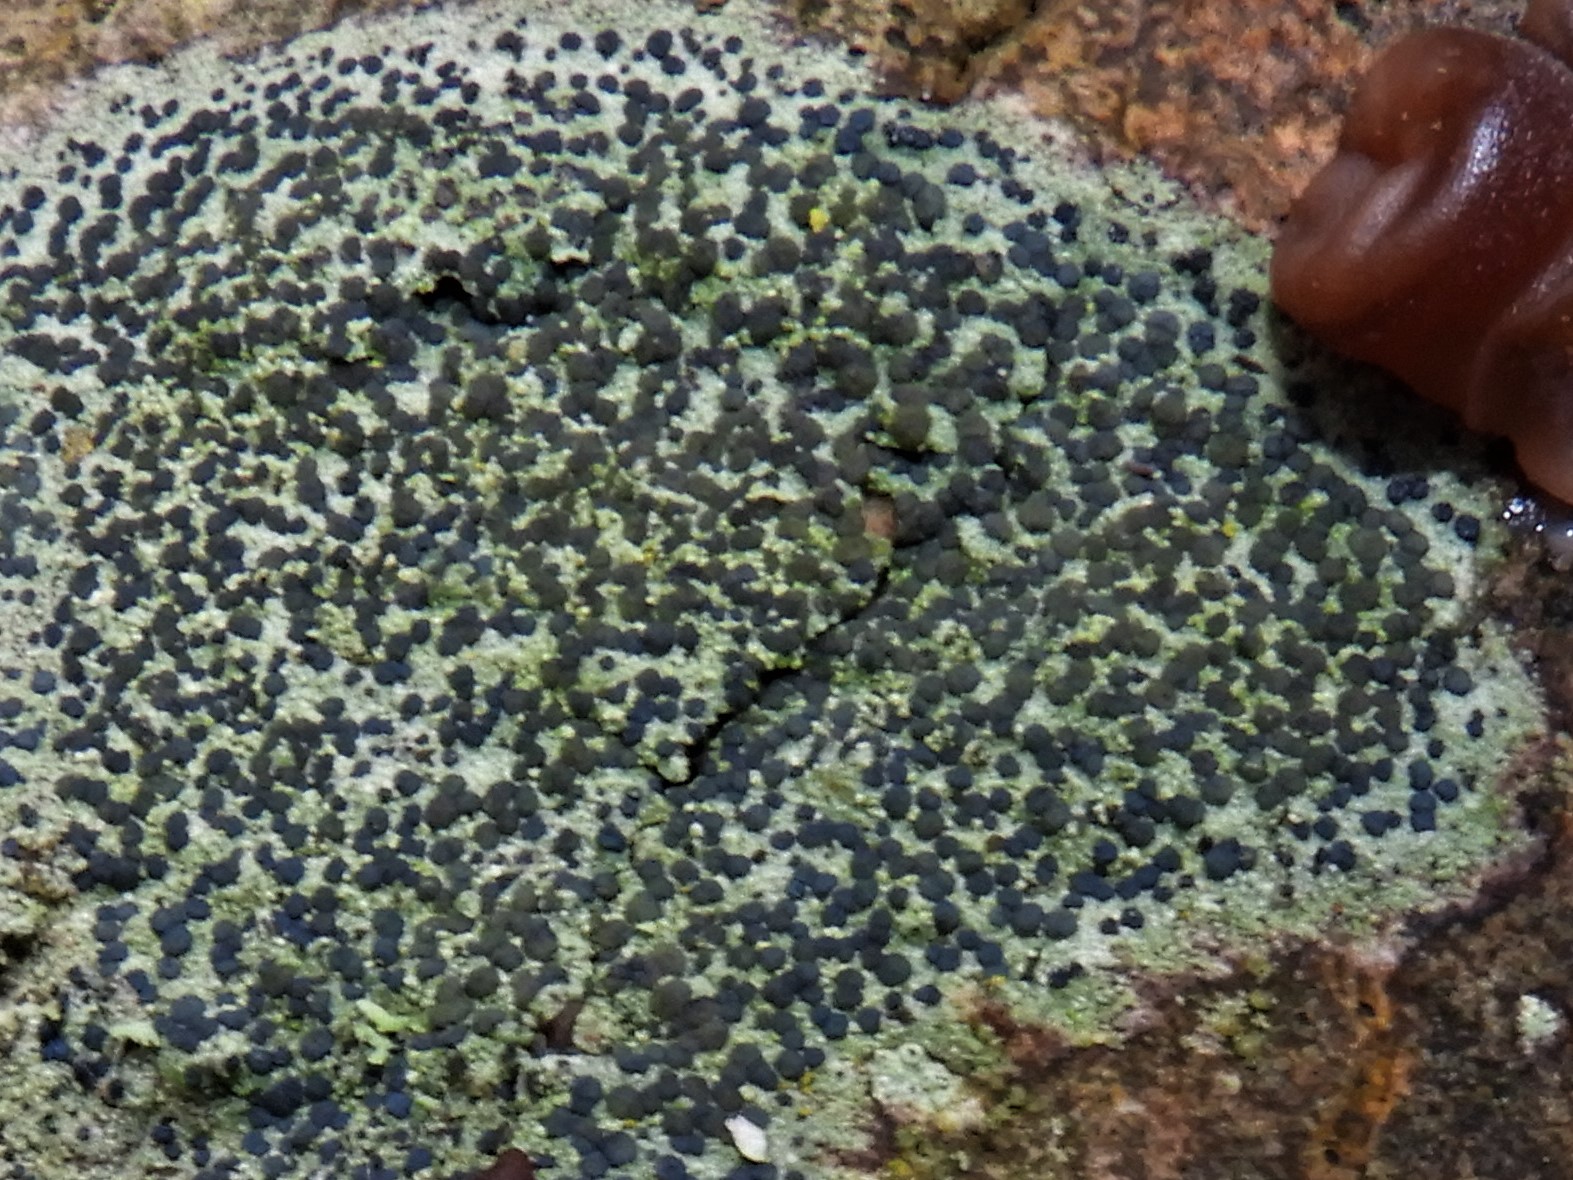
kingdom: Fungi
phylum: Ascomycota
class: Lecanoromycetes
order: Lecanorales
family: Lecanoraceae
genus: Lecidella
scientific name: Lecidella elaeochroma
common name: grågrøn skivelav
